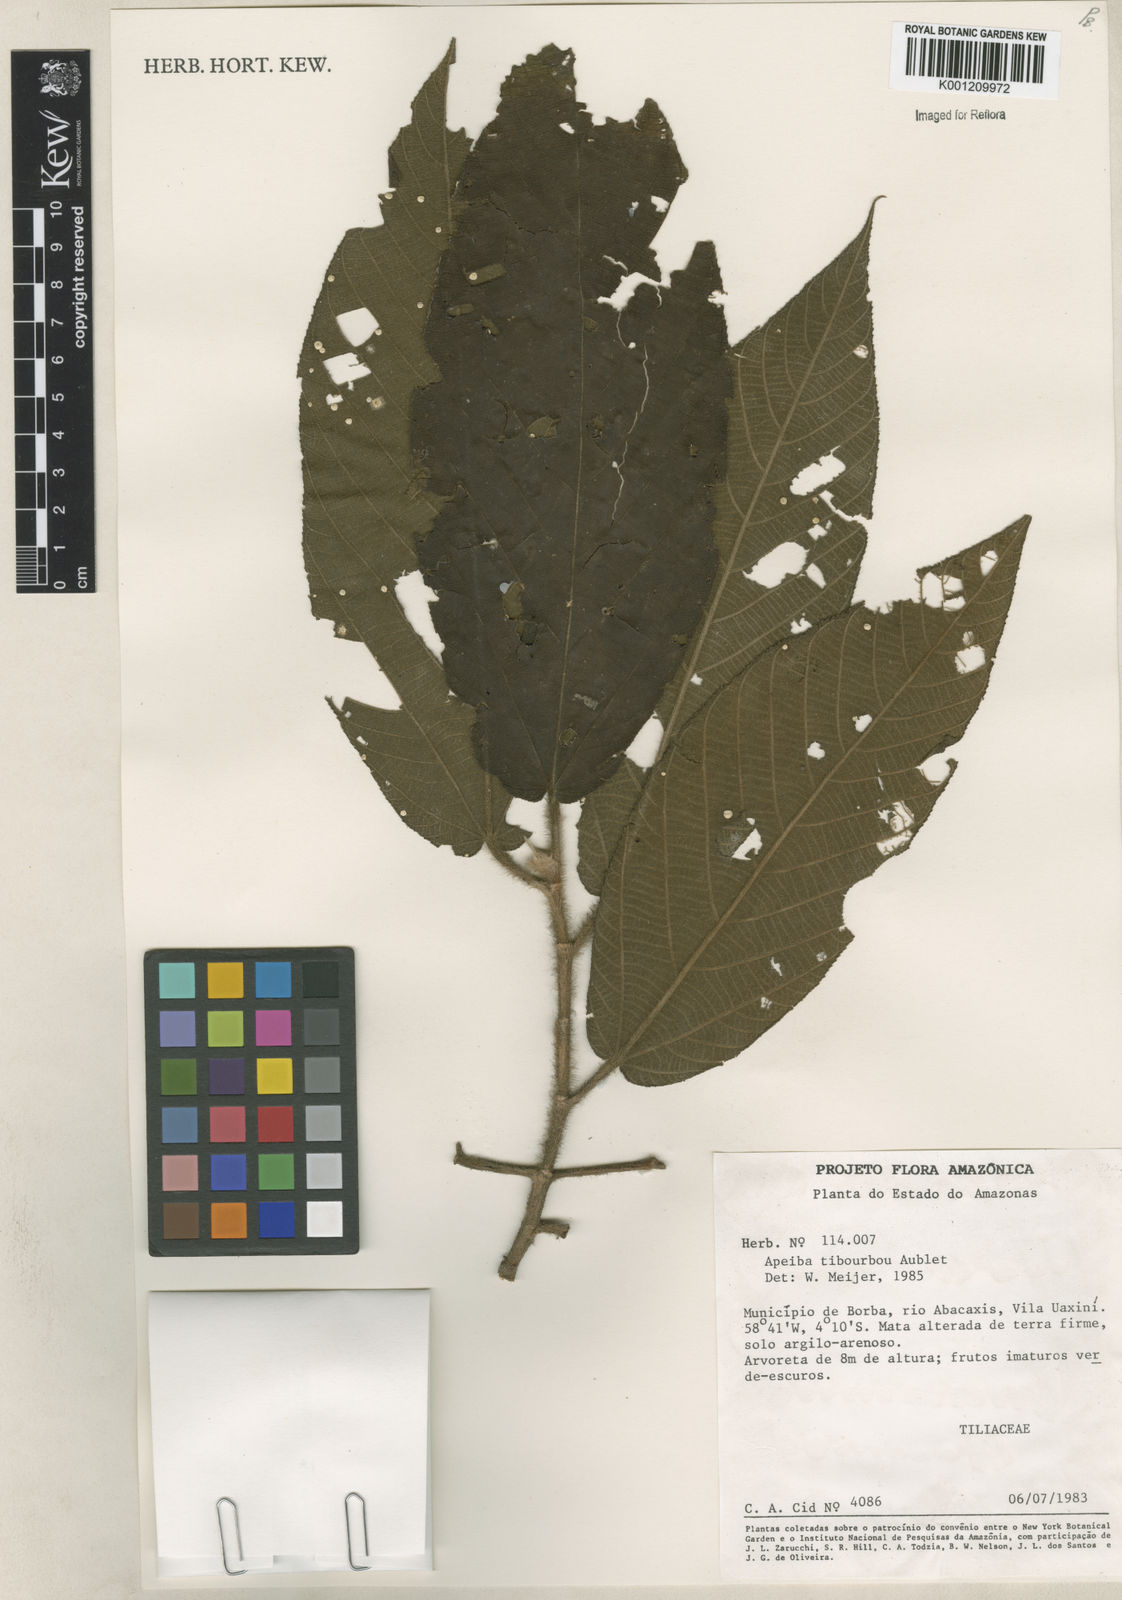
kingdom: Plantae
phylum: Tracheophyta
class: Magnoliopsida
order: Malvales
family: Malvaceae
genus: Apeiba
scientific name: Apeiba tibourbou
